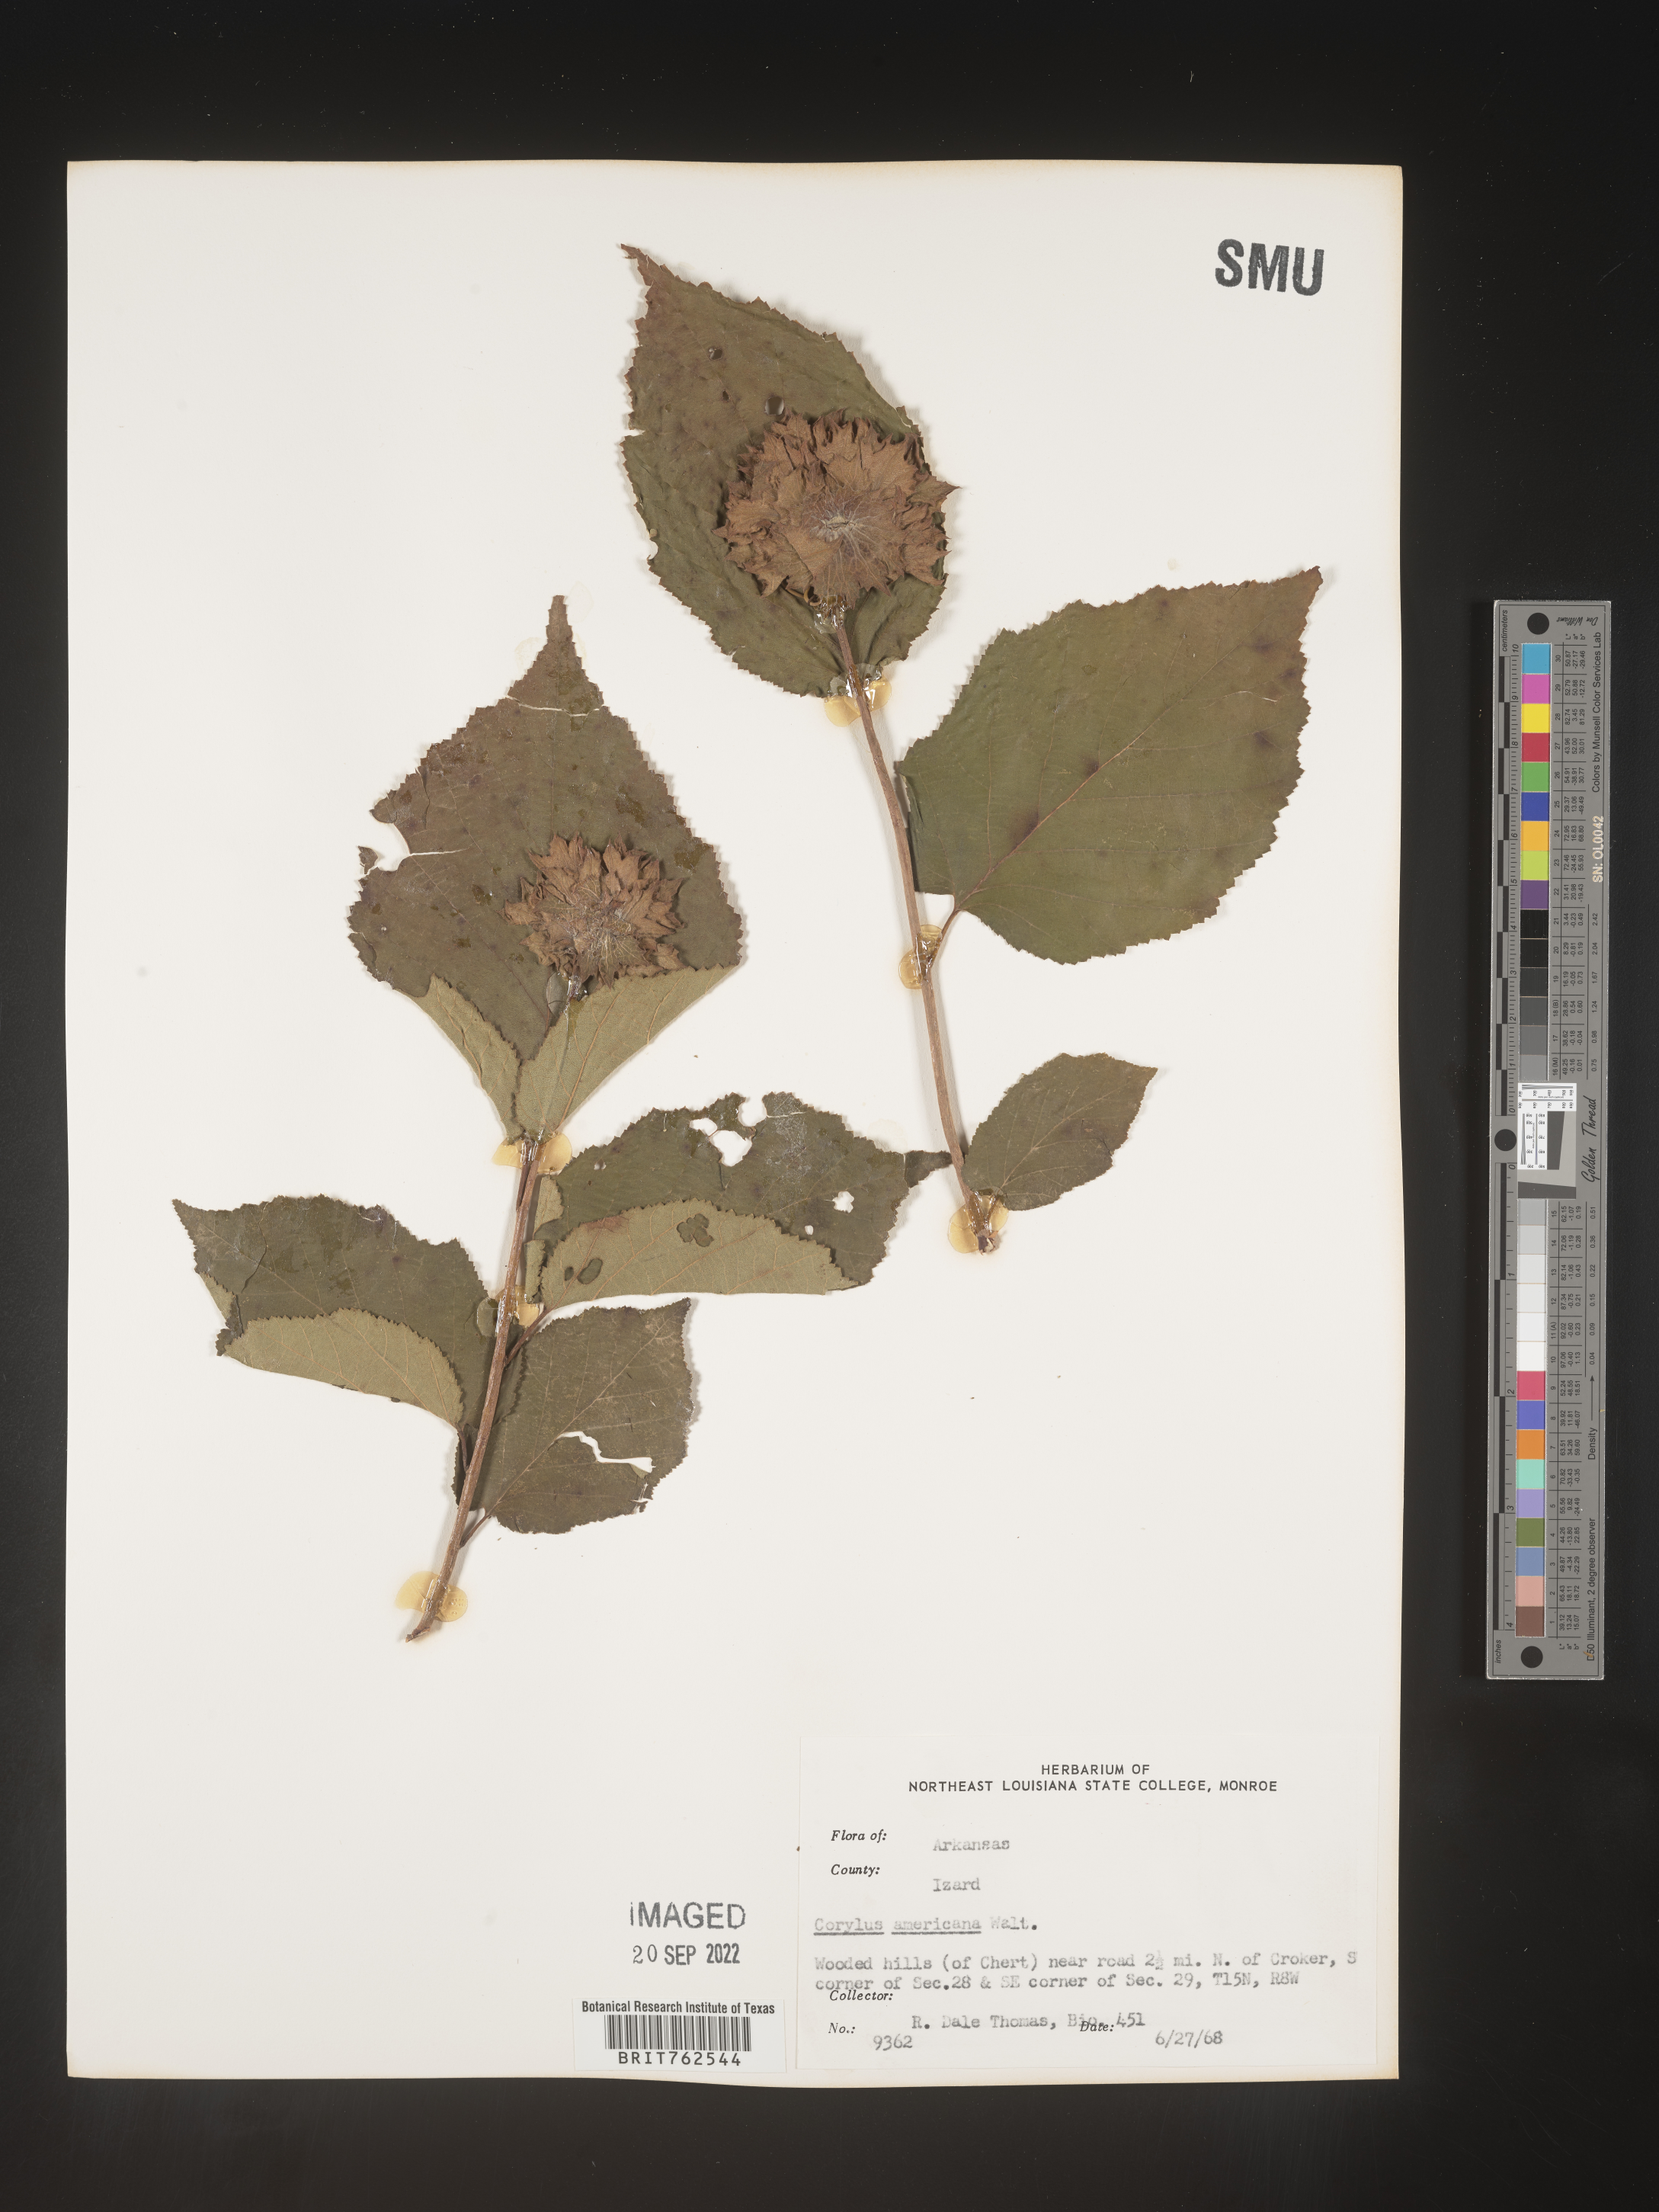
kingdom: Plantae
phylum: Tracheophyta
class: Magnoliopsida
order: Fagales
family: Betulaceae
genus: Corylus
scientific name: Corylus americana
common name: American hazel
